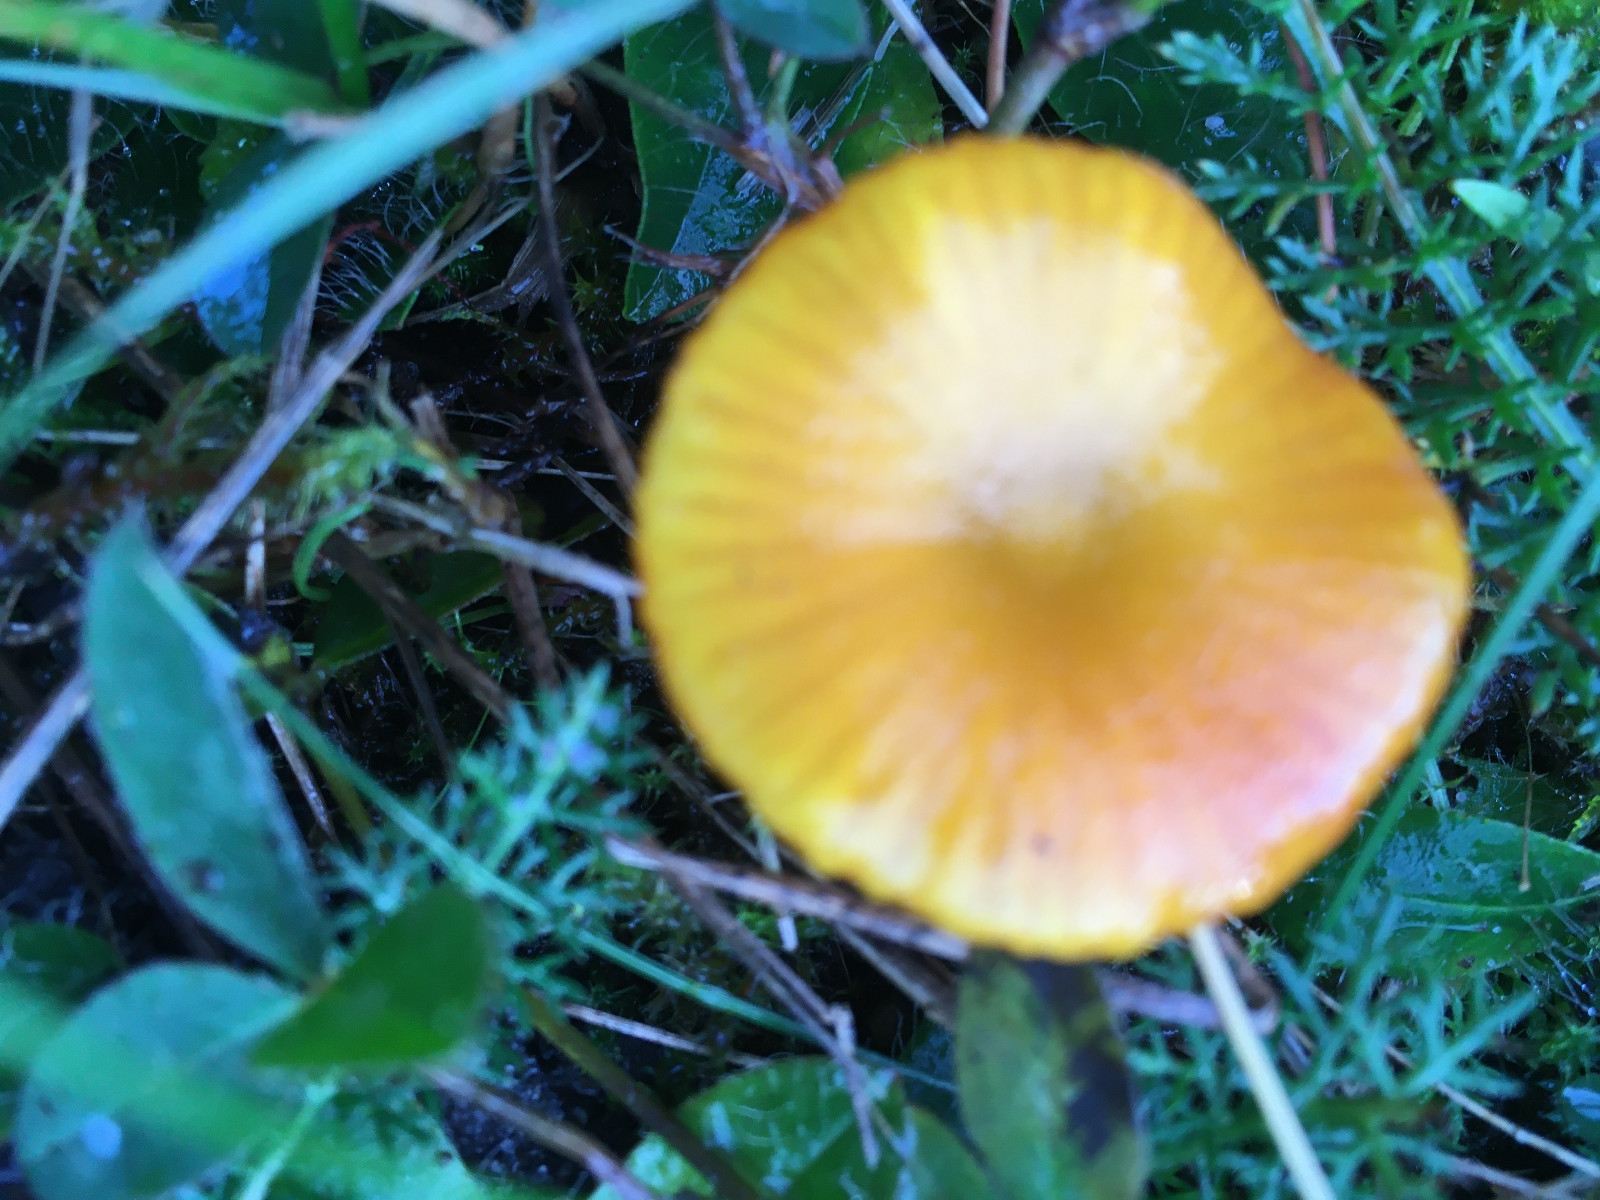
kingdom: Fungi
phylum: Basidiomycota
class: Agaricomycetes
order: Agaricales
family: Hygrophoraceae
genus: Hygrocybe
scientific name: Hygrocybe insipida
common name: liden vokshat
